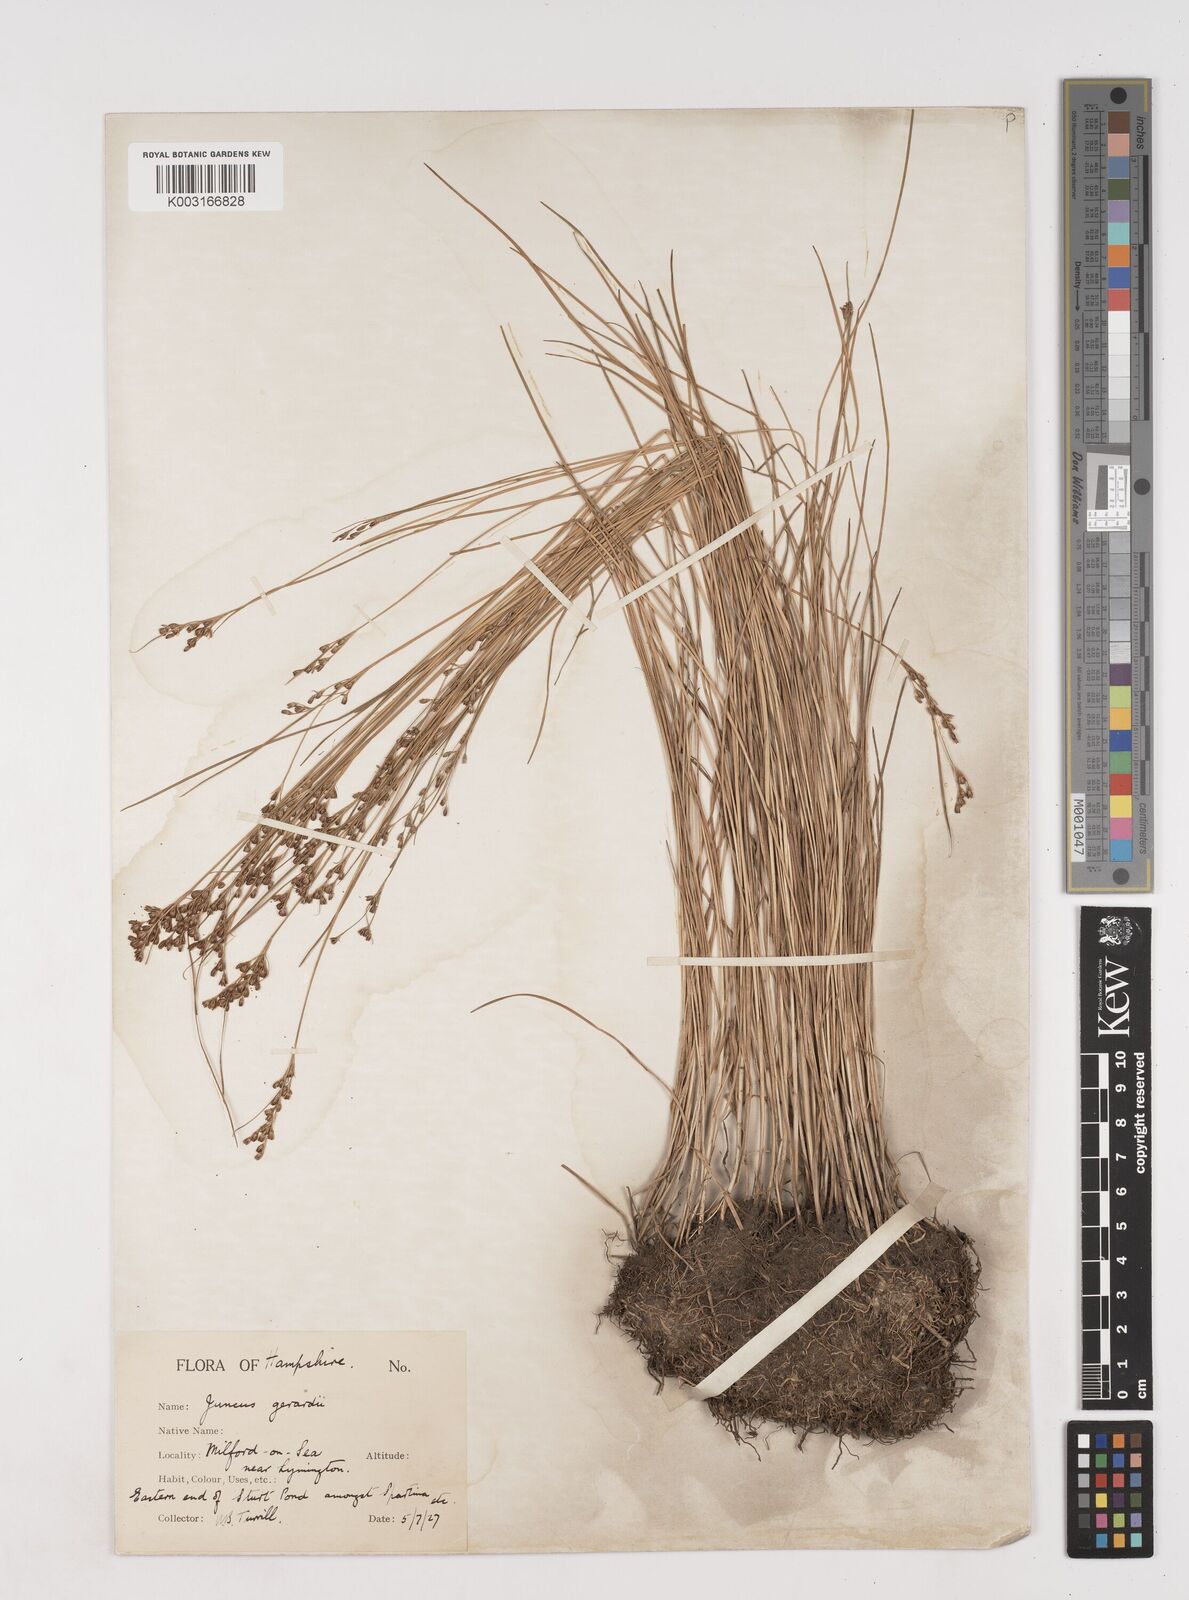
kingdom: Plantae
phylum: Tracheophyta
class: Liliopsida
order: Poales
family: Juncaceae
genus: Juncus
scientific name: Juncus gerardi
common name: Saltmarsh rush
